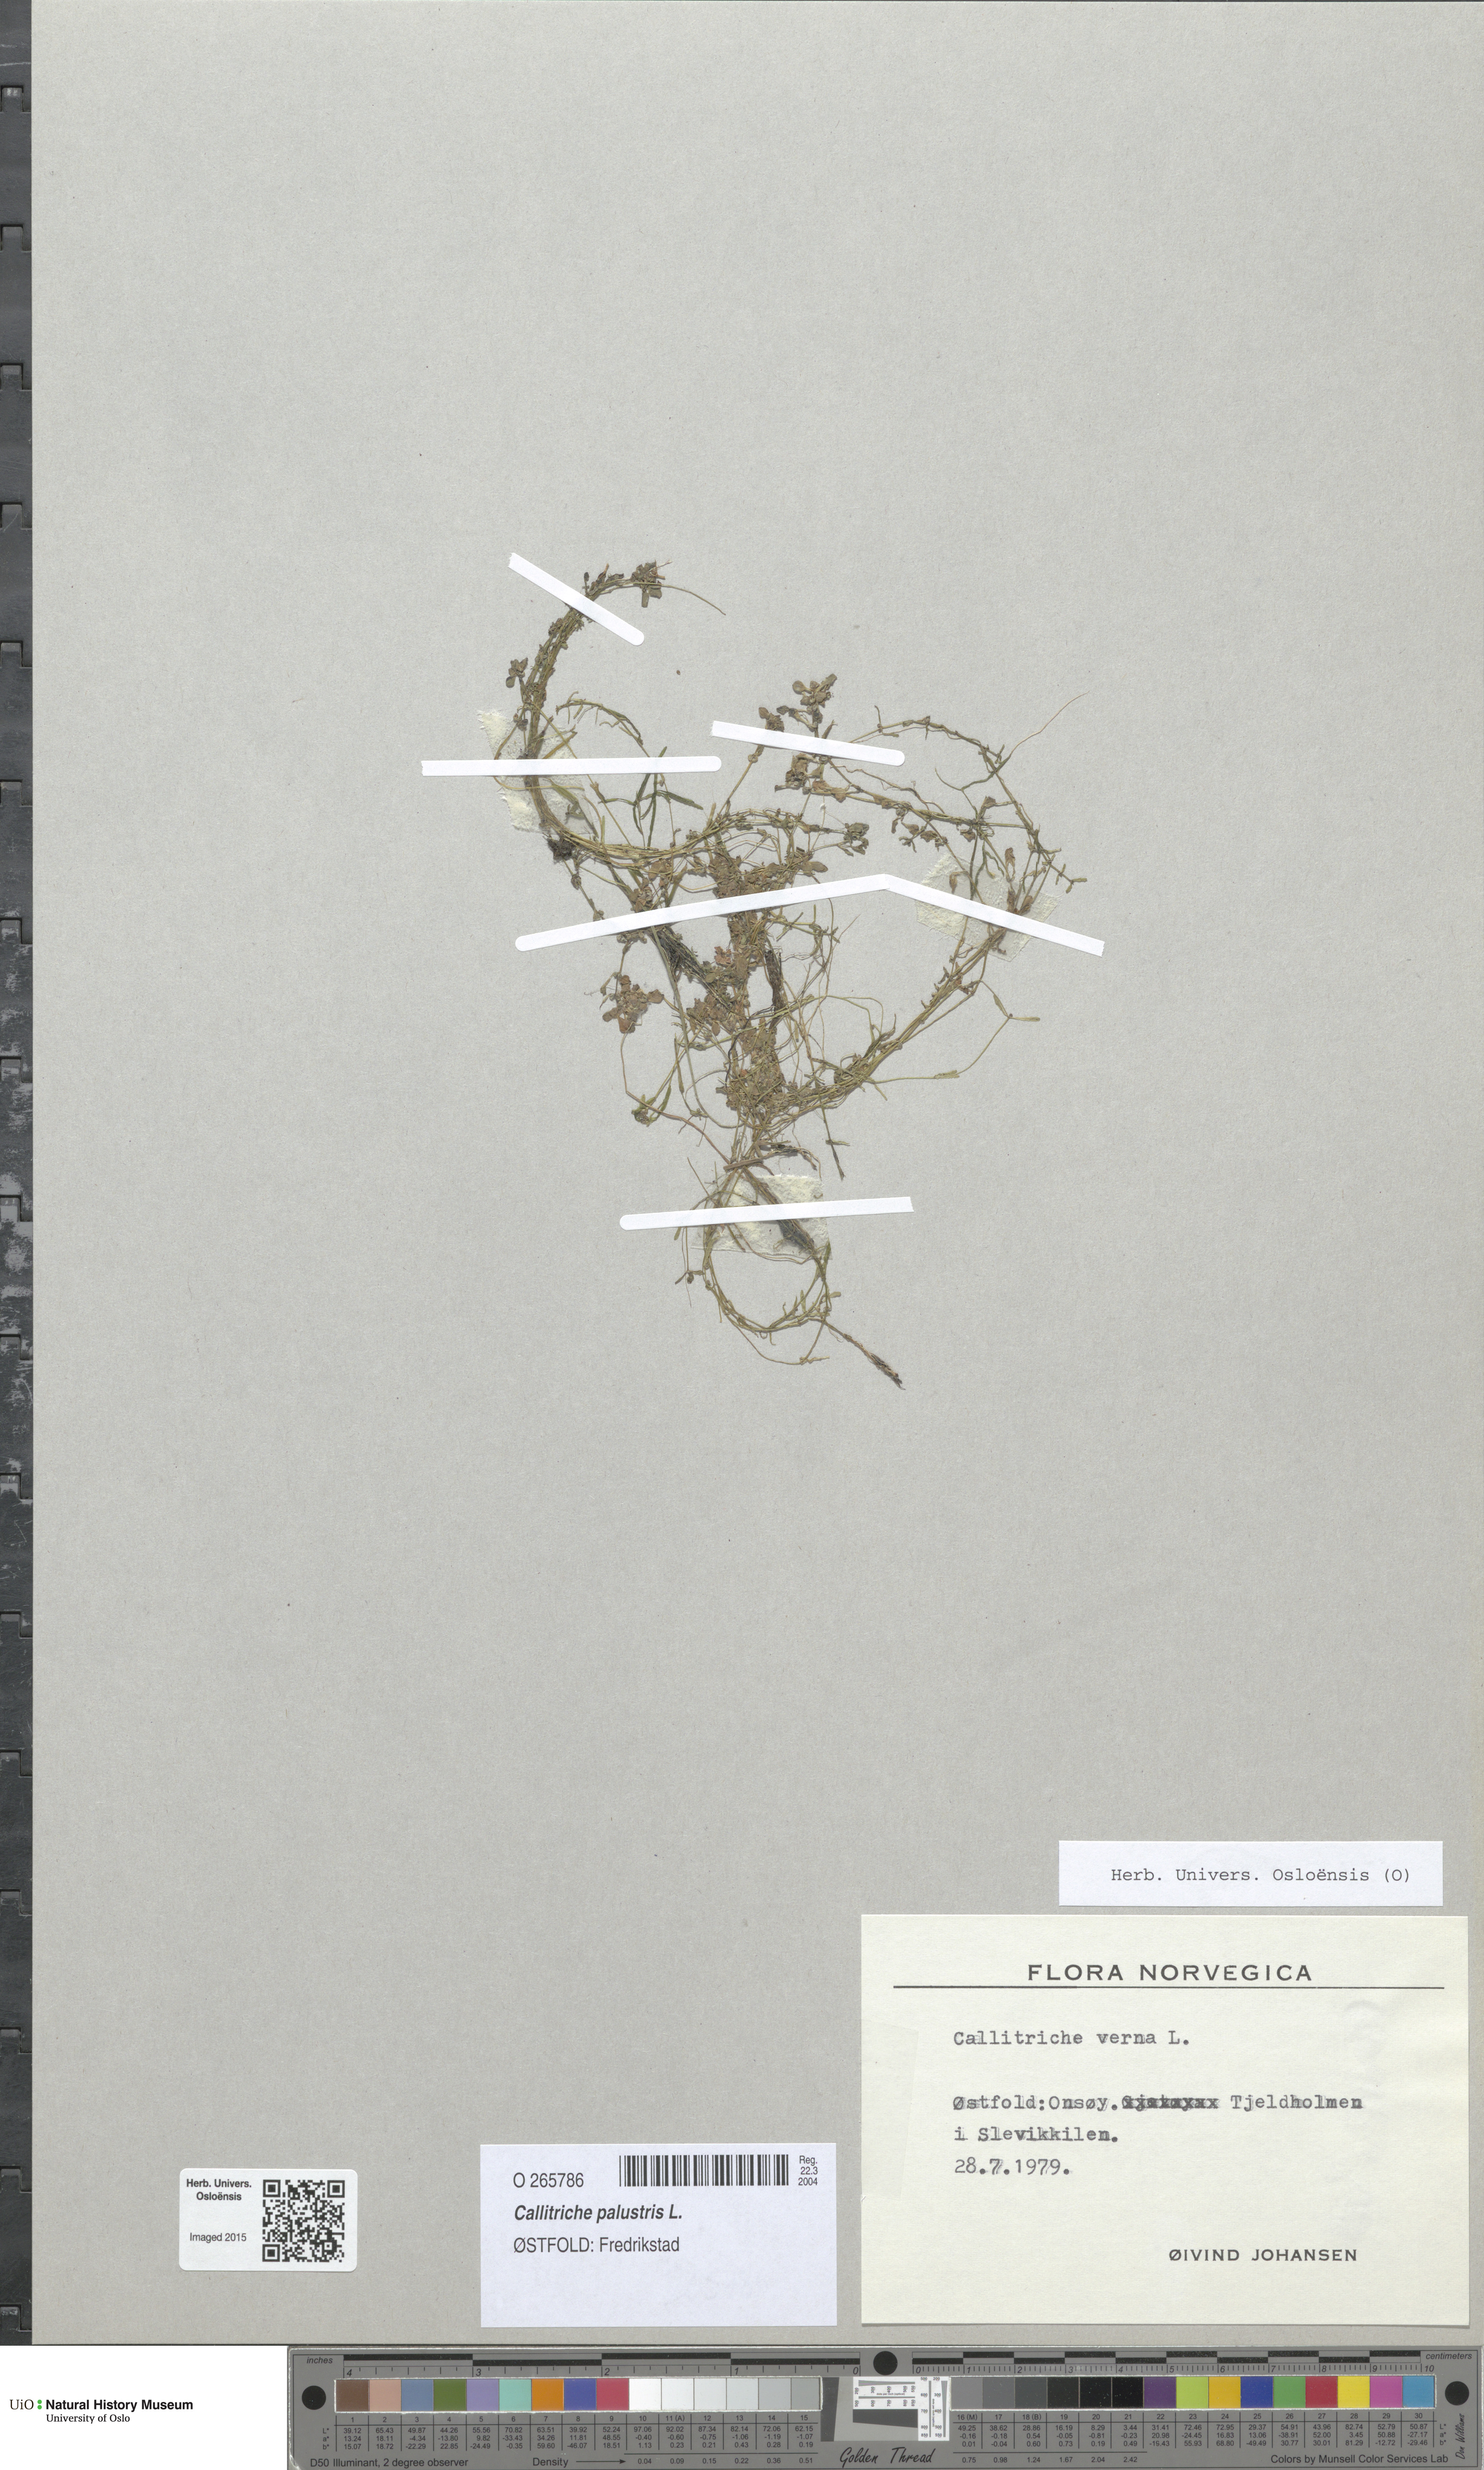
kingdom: Plantae
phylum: Tracheophyta
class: Magnoliopsida
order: Lamiales
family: Plantaginaceae
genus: Callitriche
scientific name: Callitriche palustris
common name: Spring water-starwort
